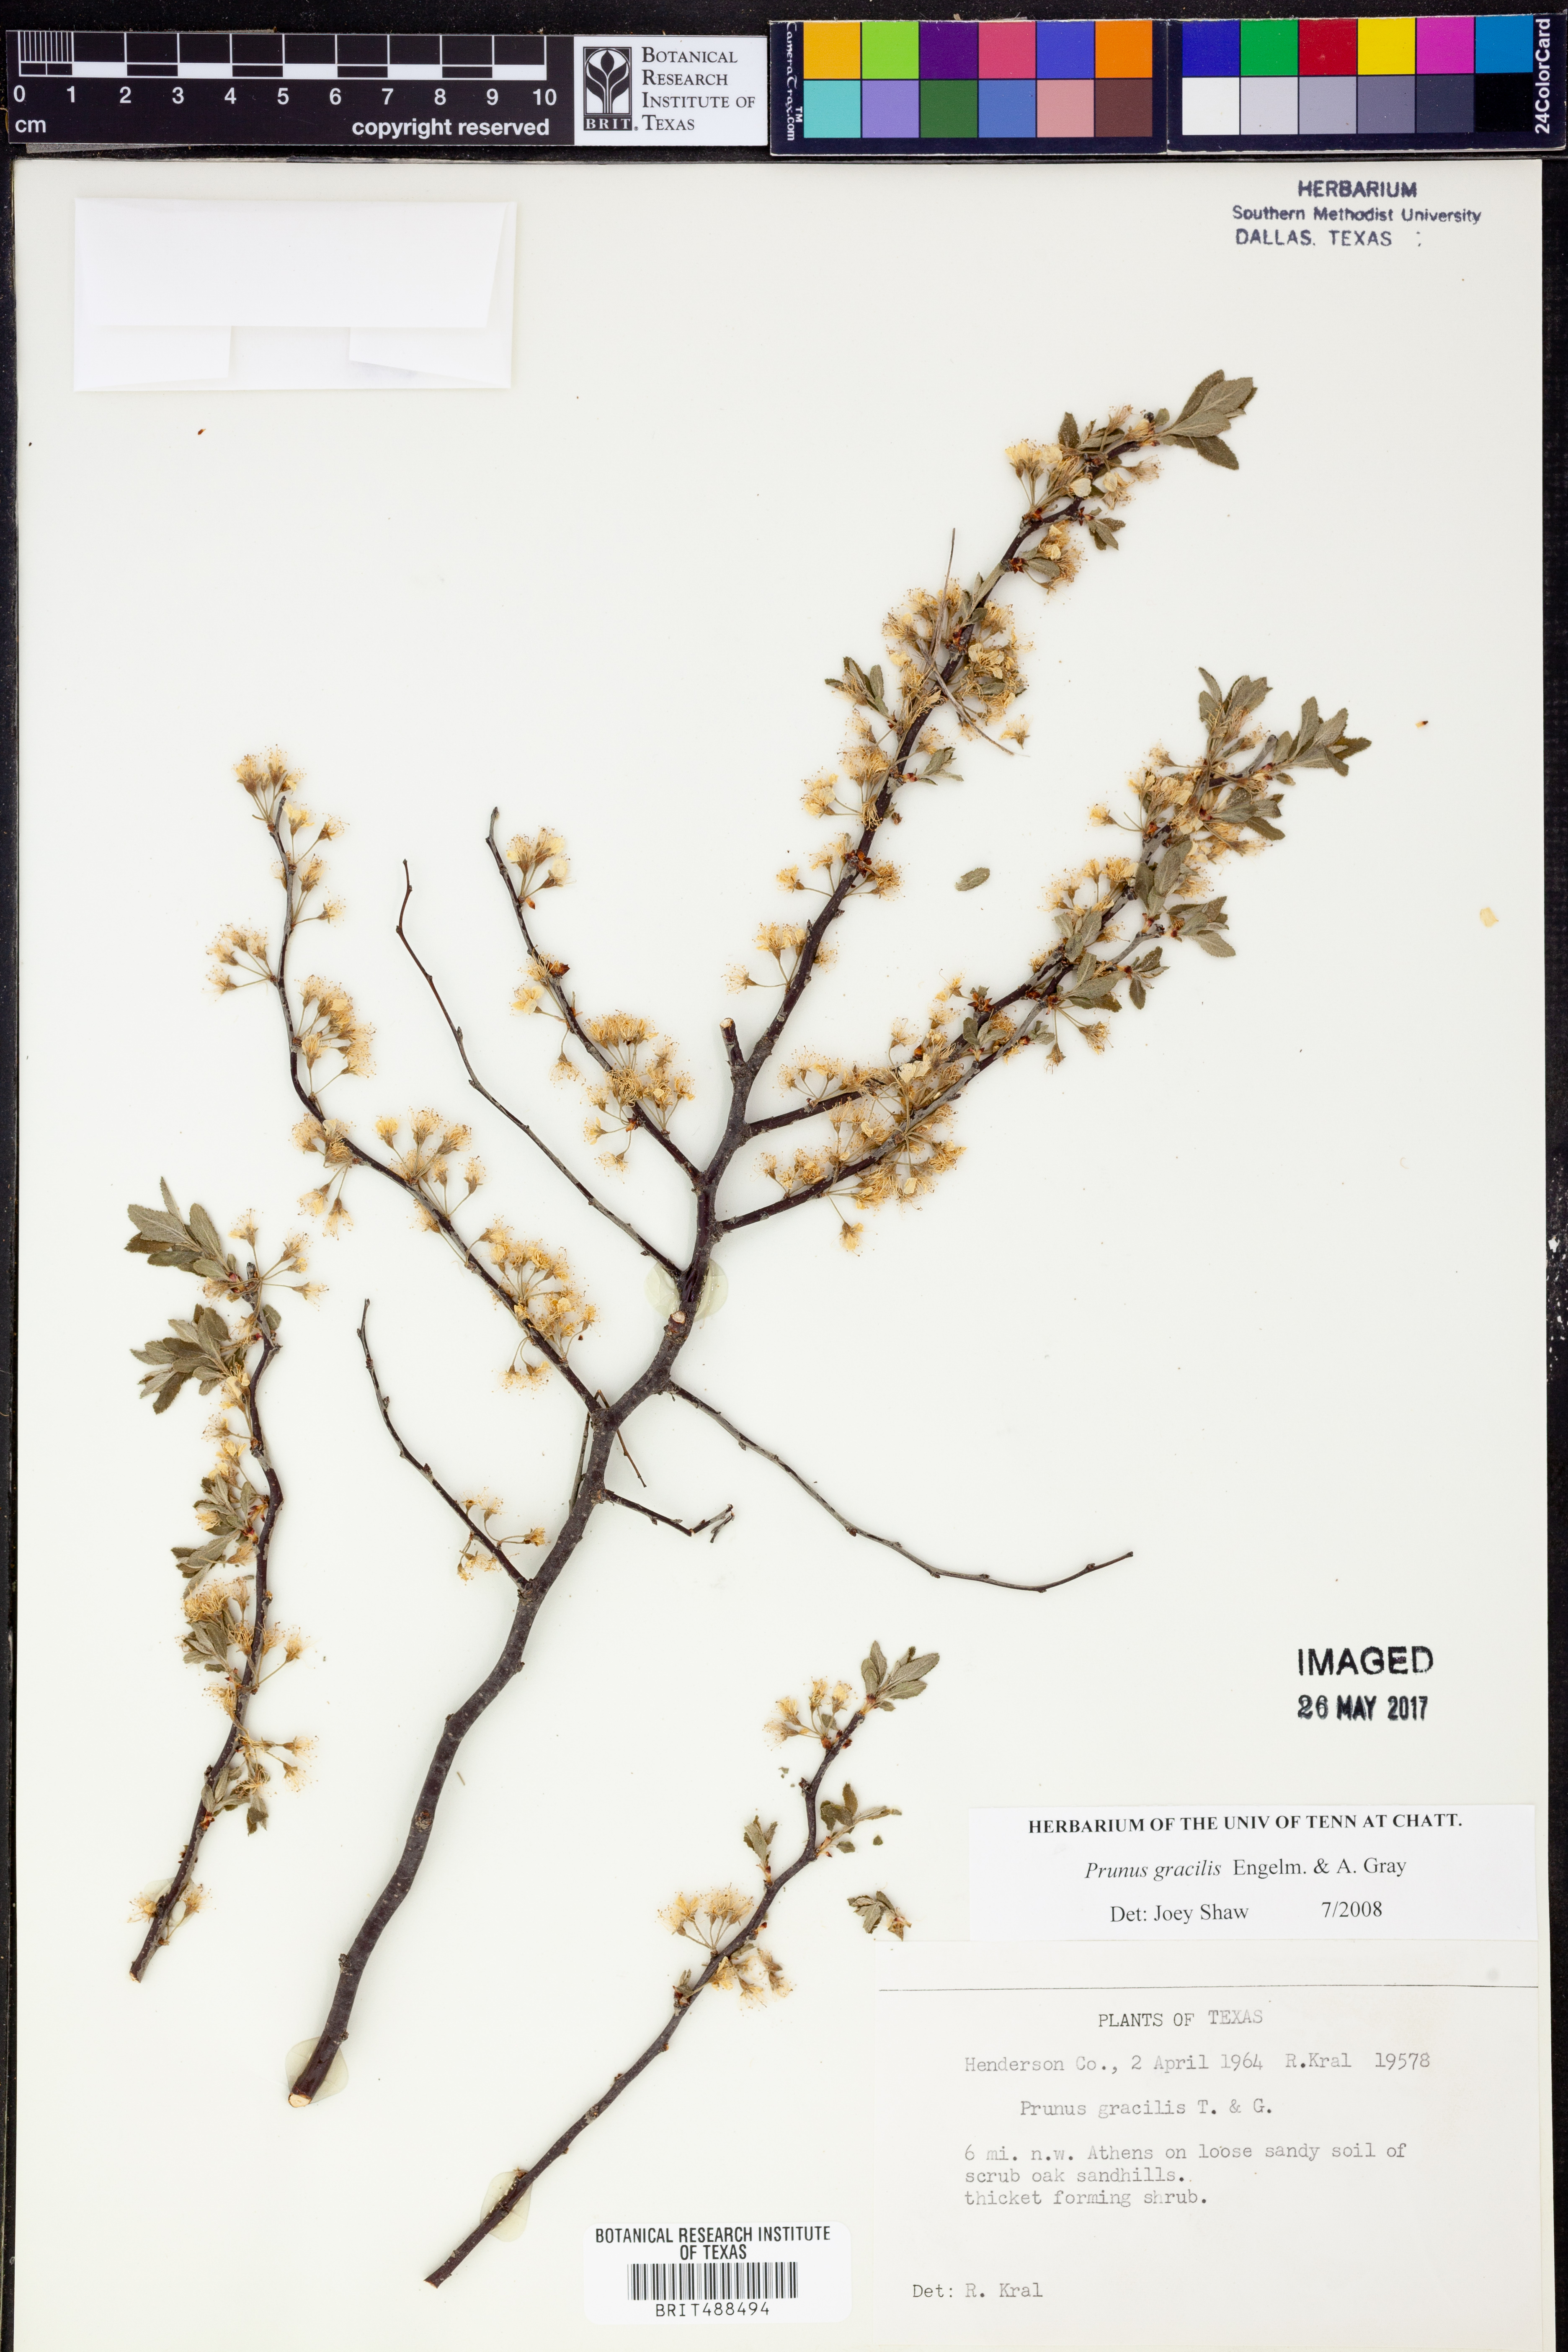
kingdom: Plantae
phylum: Tracheophyta
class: Magnoliopsida
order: Rosales
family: Rosaceae
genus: Prunus
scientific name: Prunus gracilis
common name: Oklahoma plum
